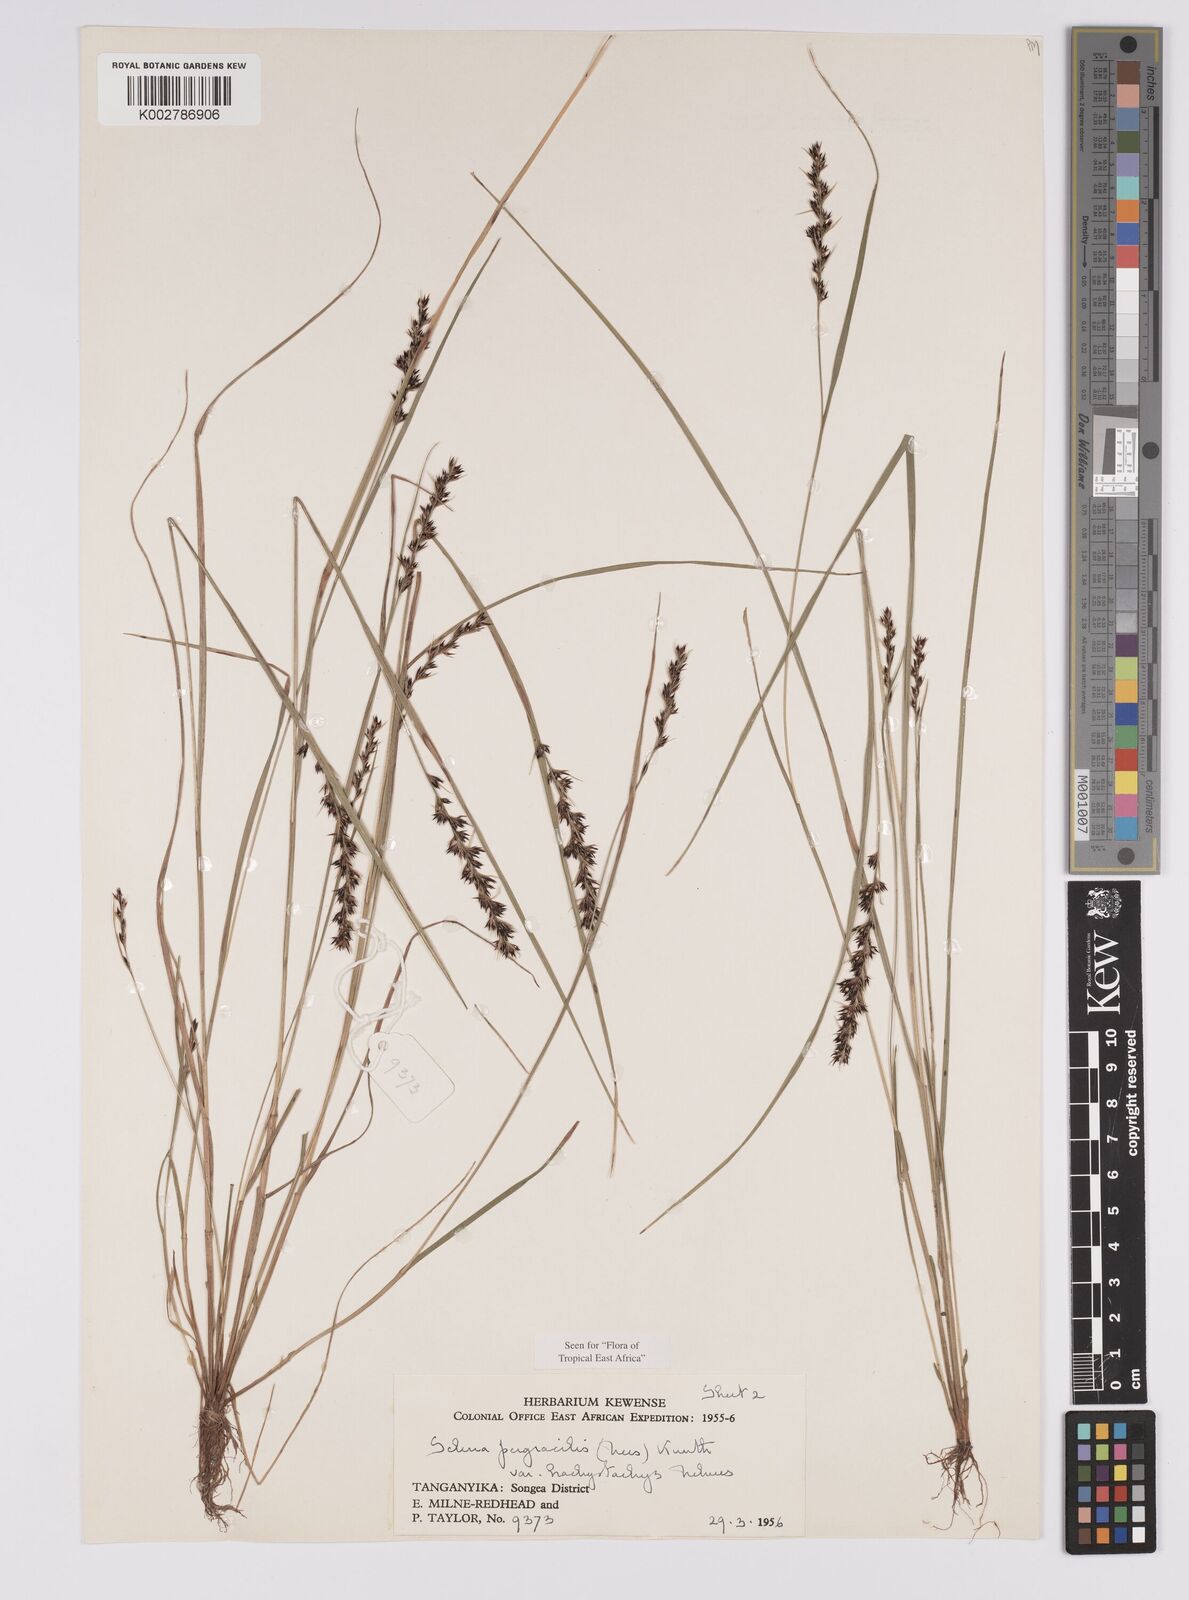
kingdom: Plantae
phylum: Tracheophyta
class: Liliopsida
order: Poales
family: Cyperaceae
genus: Scleria
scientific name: Scleria pergracilis
